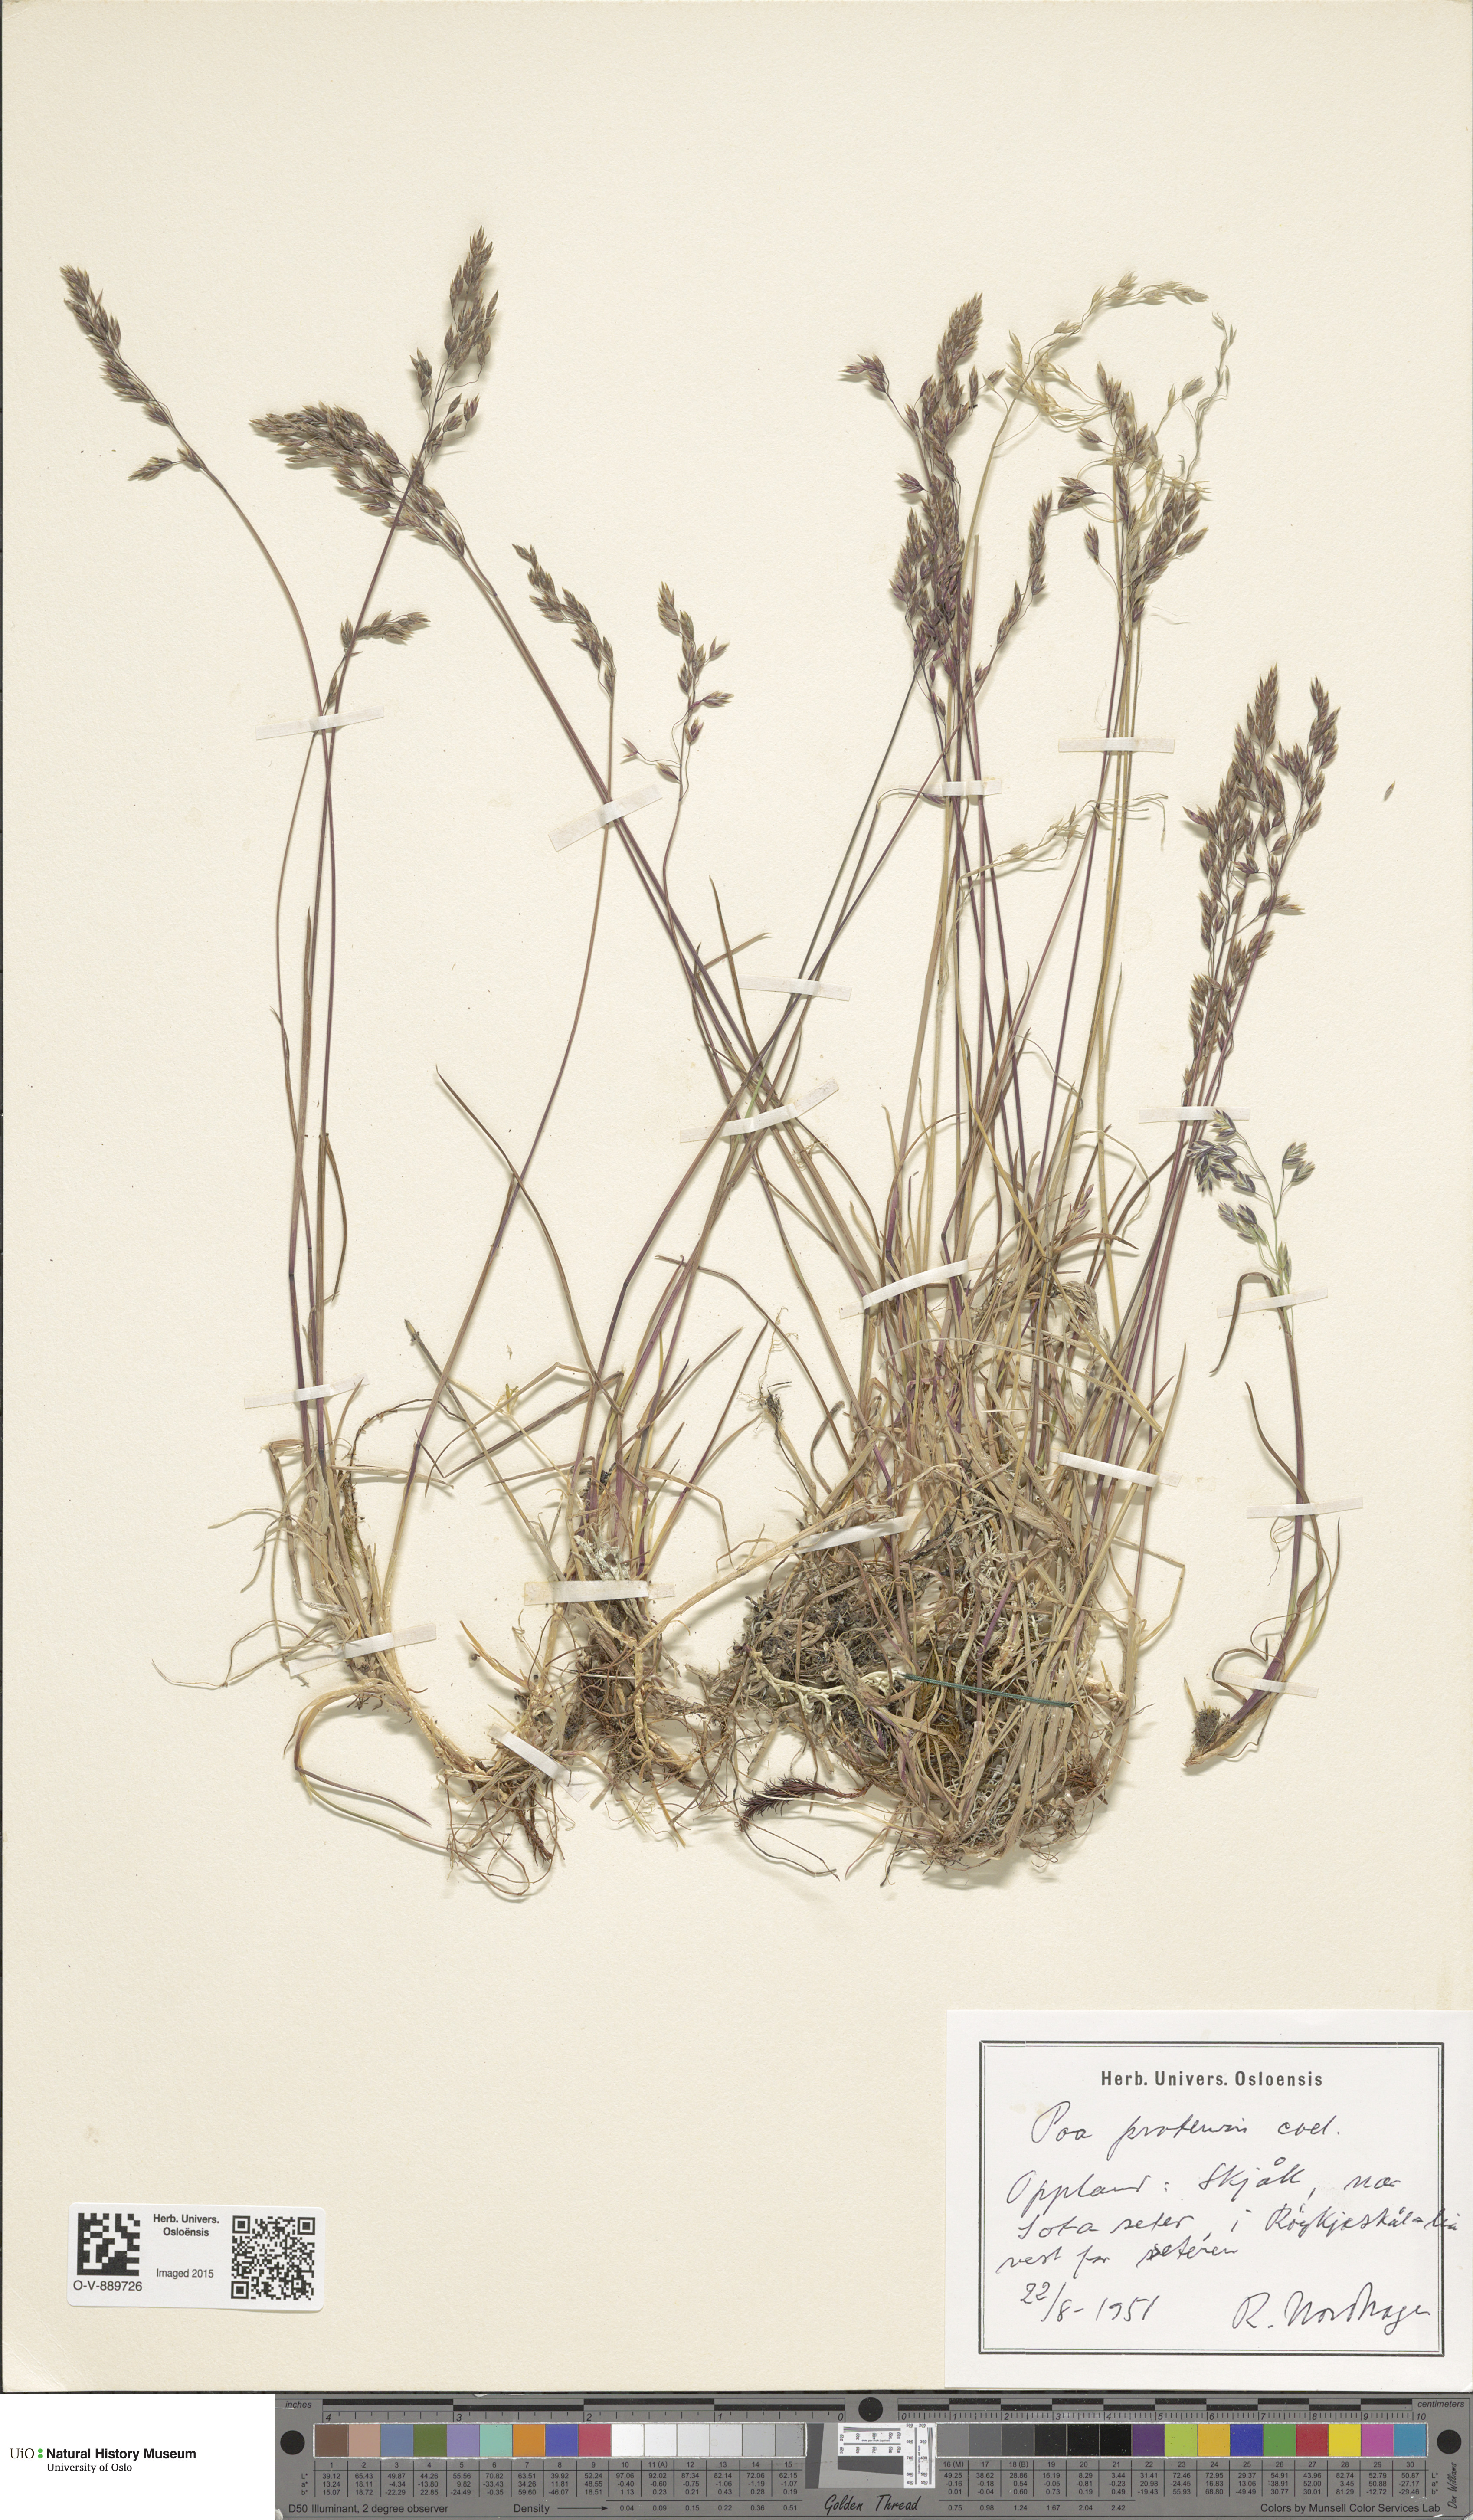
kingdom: Plantae
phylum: Tracheophyta
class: Liliopsida
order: Poales
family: Poaceae
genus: Poa
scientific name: Poa pratensis
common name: Kentucky bluegrass
